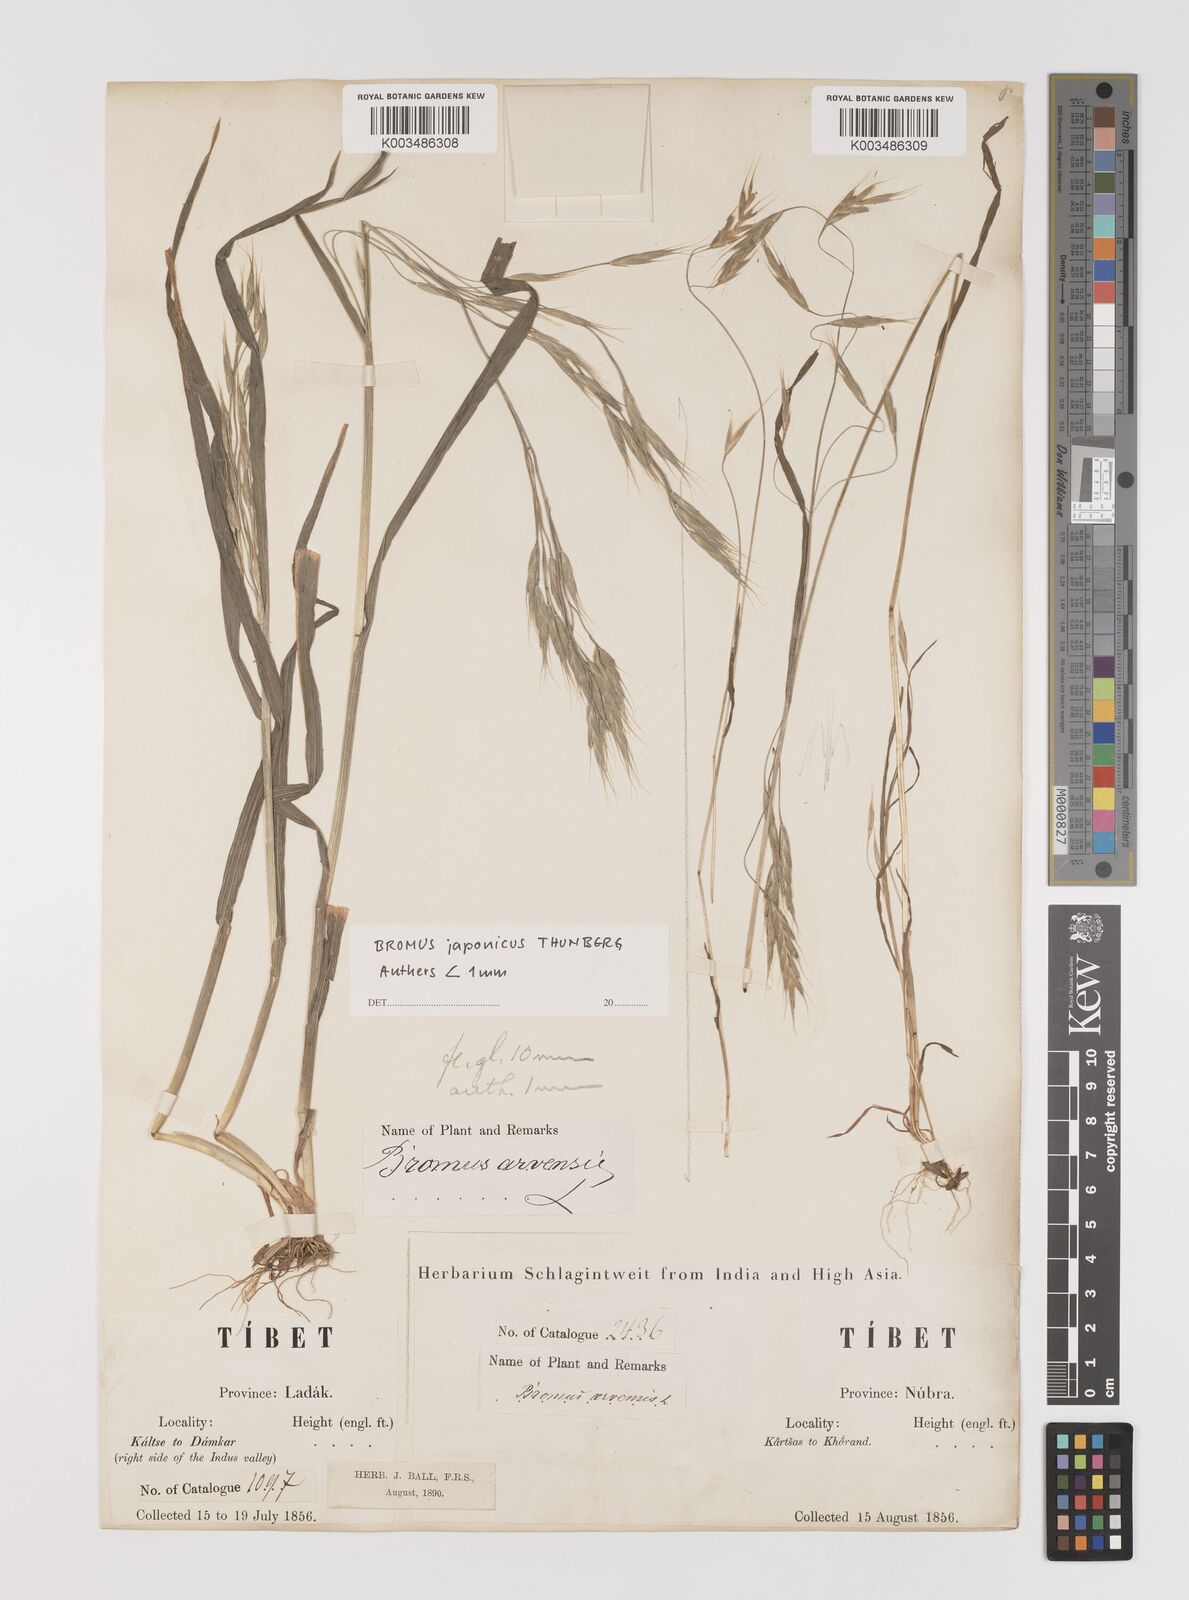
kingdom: Plantae
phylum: Tracheophyta
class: Liliopsida
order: Poales
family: Poaceae
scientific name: Poaceae
